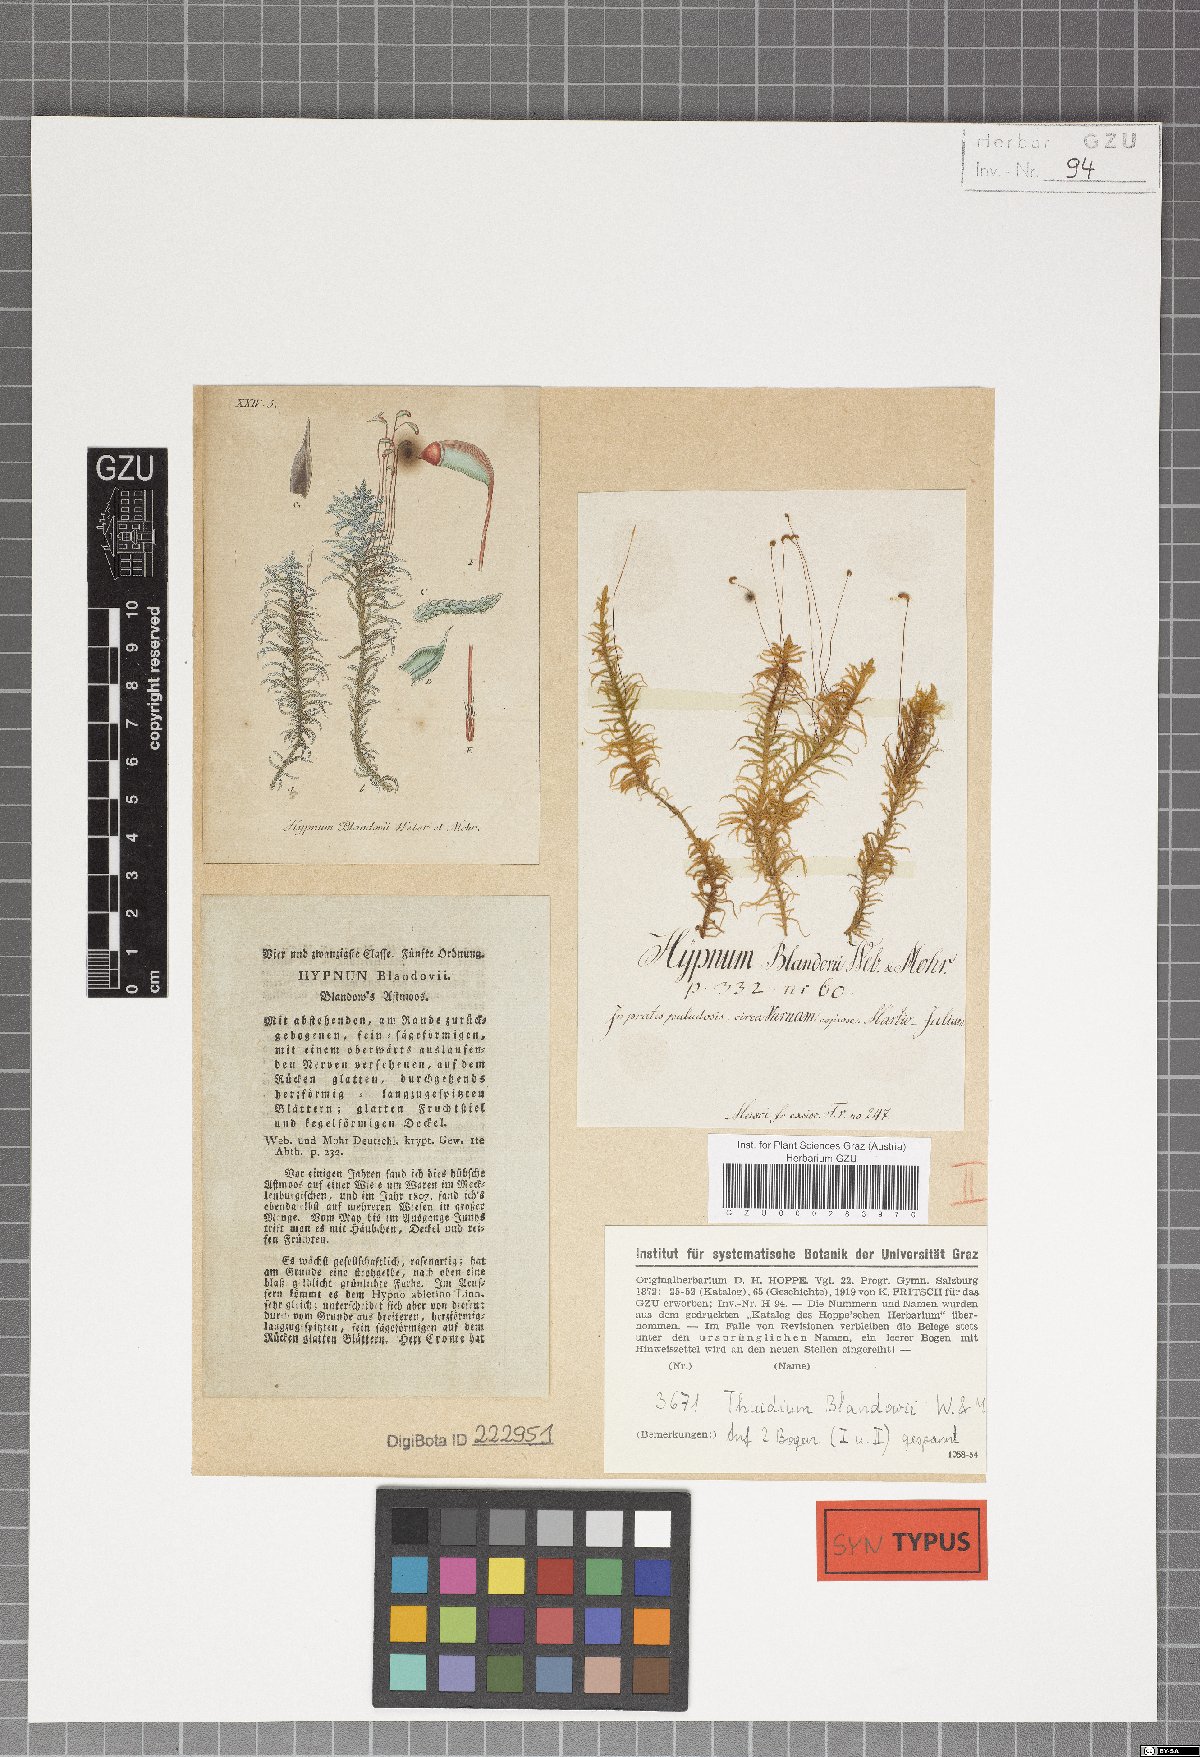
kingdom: Plantae
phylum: Bryophyta
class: Bryopsida
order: Hypnales
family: Helodiaceae
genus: Helodium
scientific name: Helodium blandowii
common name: Blandow's tamarisk-moss
